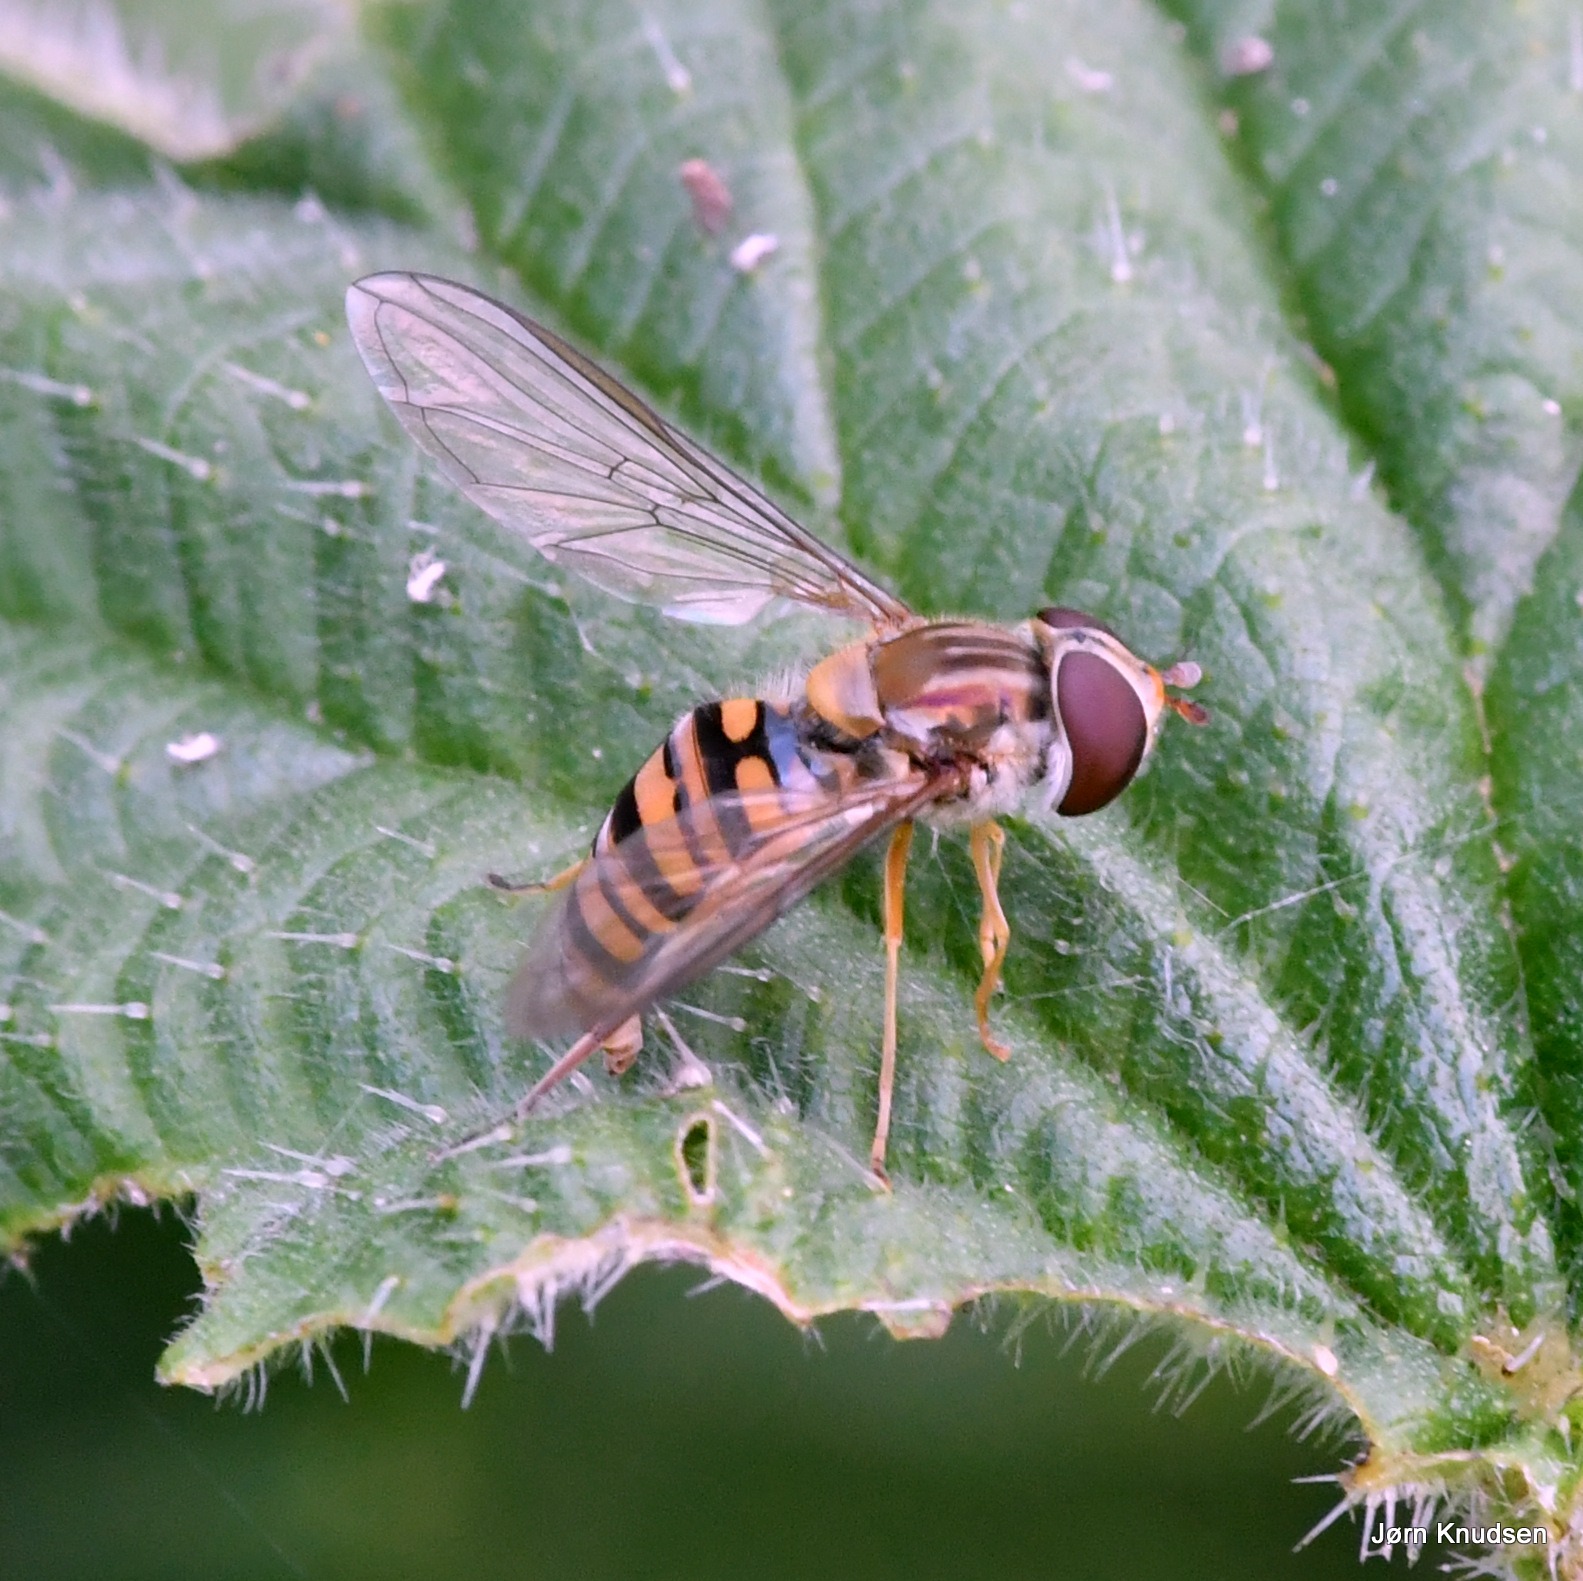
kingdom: Animalia
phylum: Arthropoda
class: Insecta
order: Diptera
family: Syrphidae
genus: Episyrphus
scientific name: Episyrphus balteatus
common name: Dobbeltbåndet svirreflue
